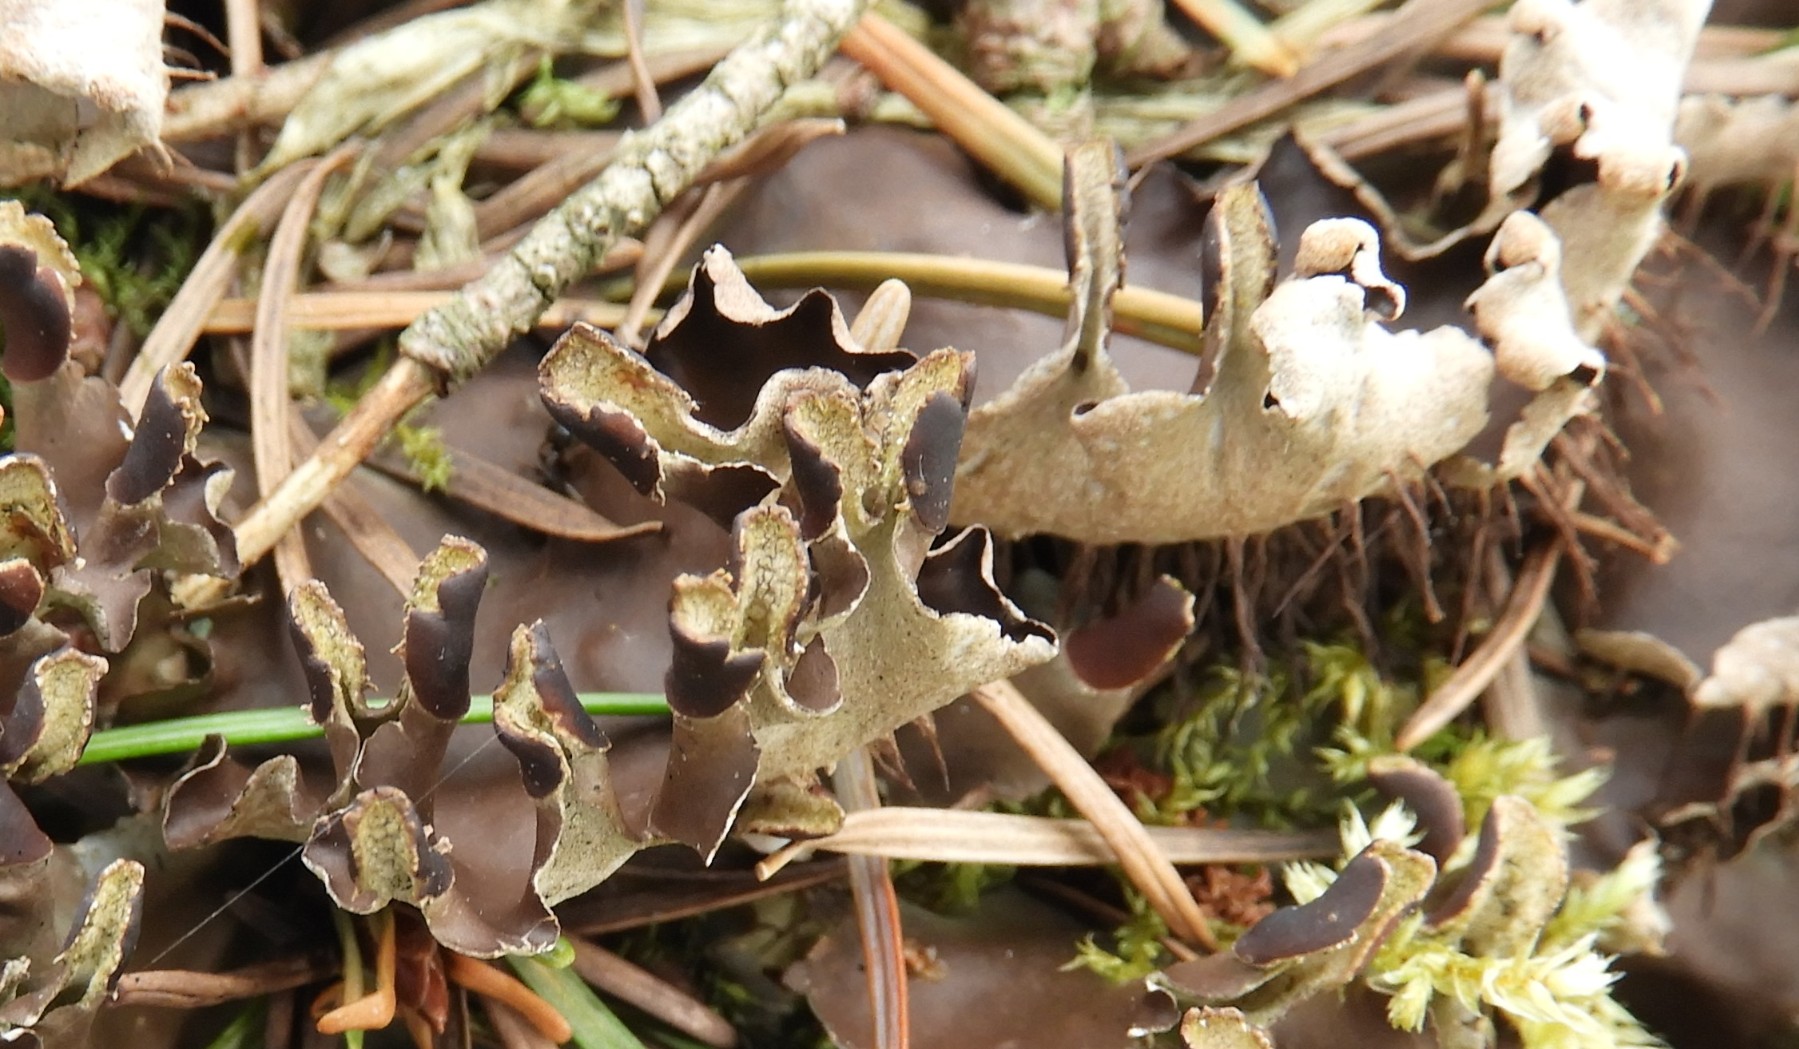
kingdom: Fungi
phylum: Ascomycota
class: Lecanoromycetes
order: Peltigerales
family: Peltigeraceae
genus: Peltigera
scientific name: Peltigera neckeri
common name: glinsende skjoldlav
